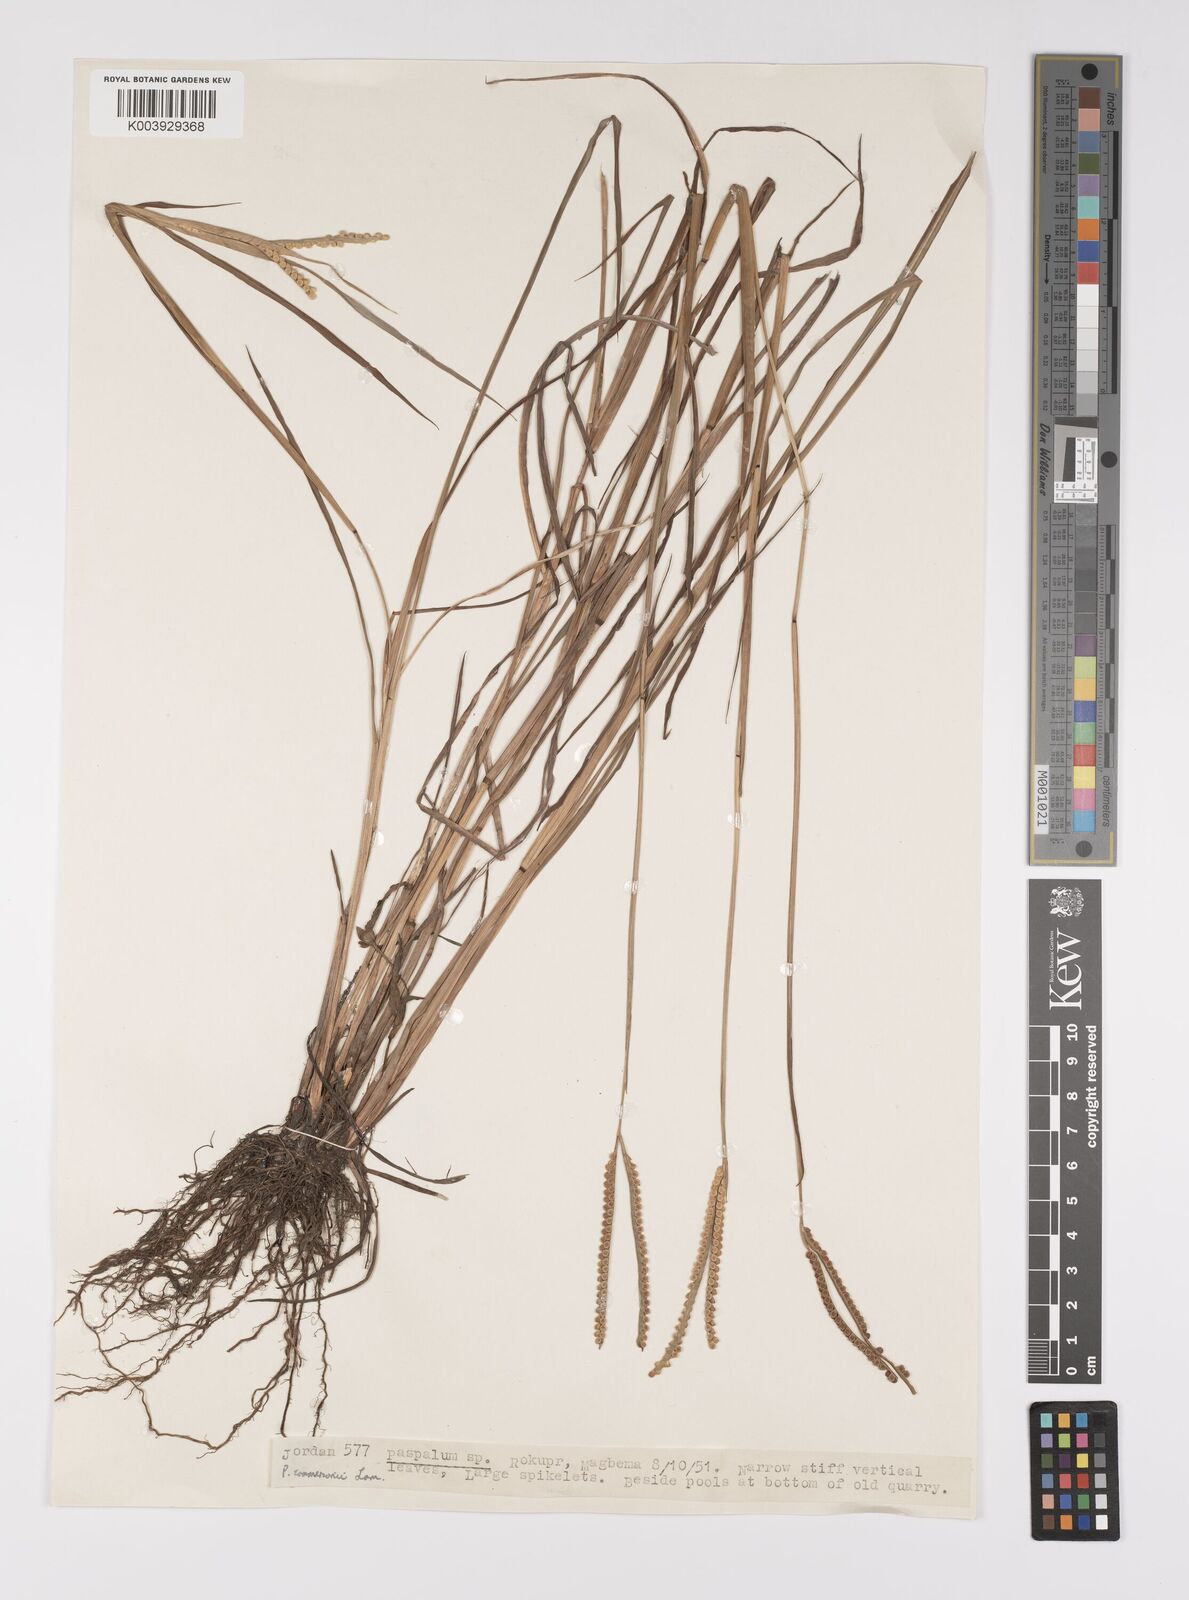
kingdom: Plantae
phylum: Tracheophyta
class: Liliopsida
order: Poales
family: Poaceae
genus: Paspalum
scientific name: Paspalum scrobiculatum
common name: Kodo millet
